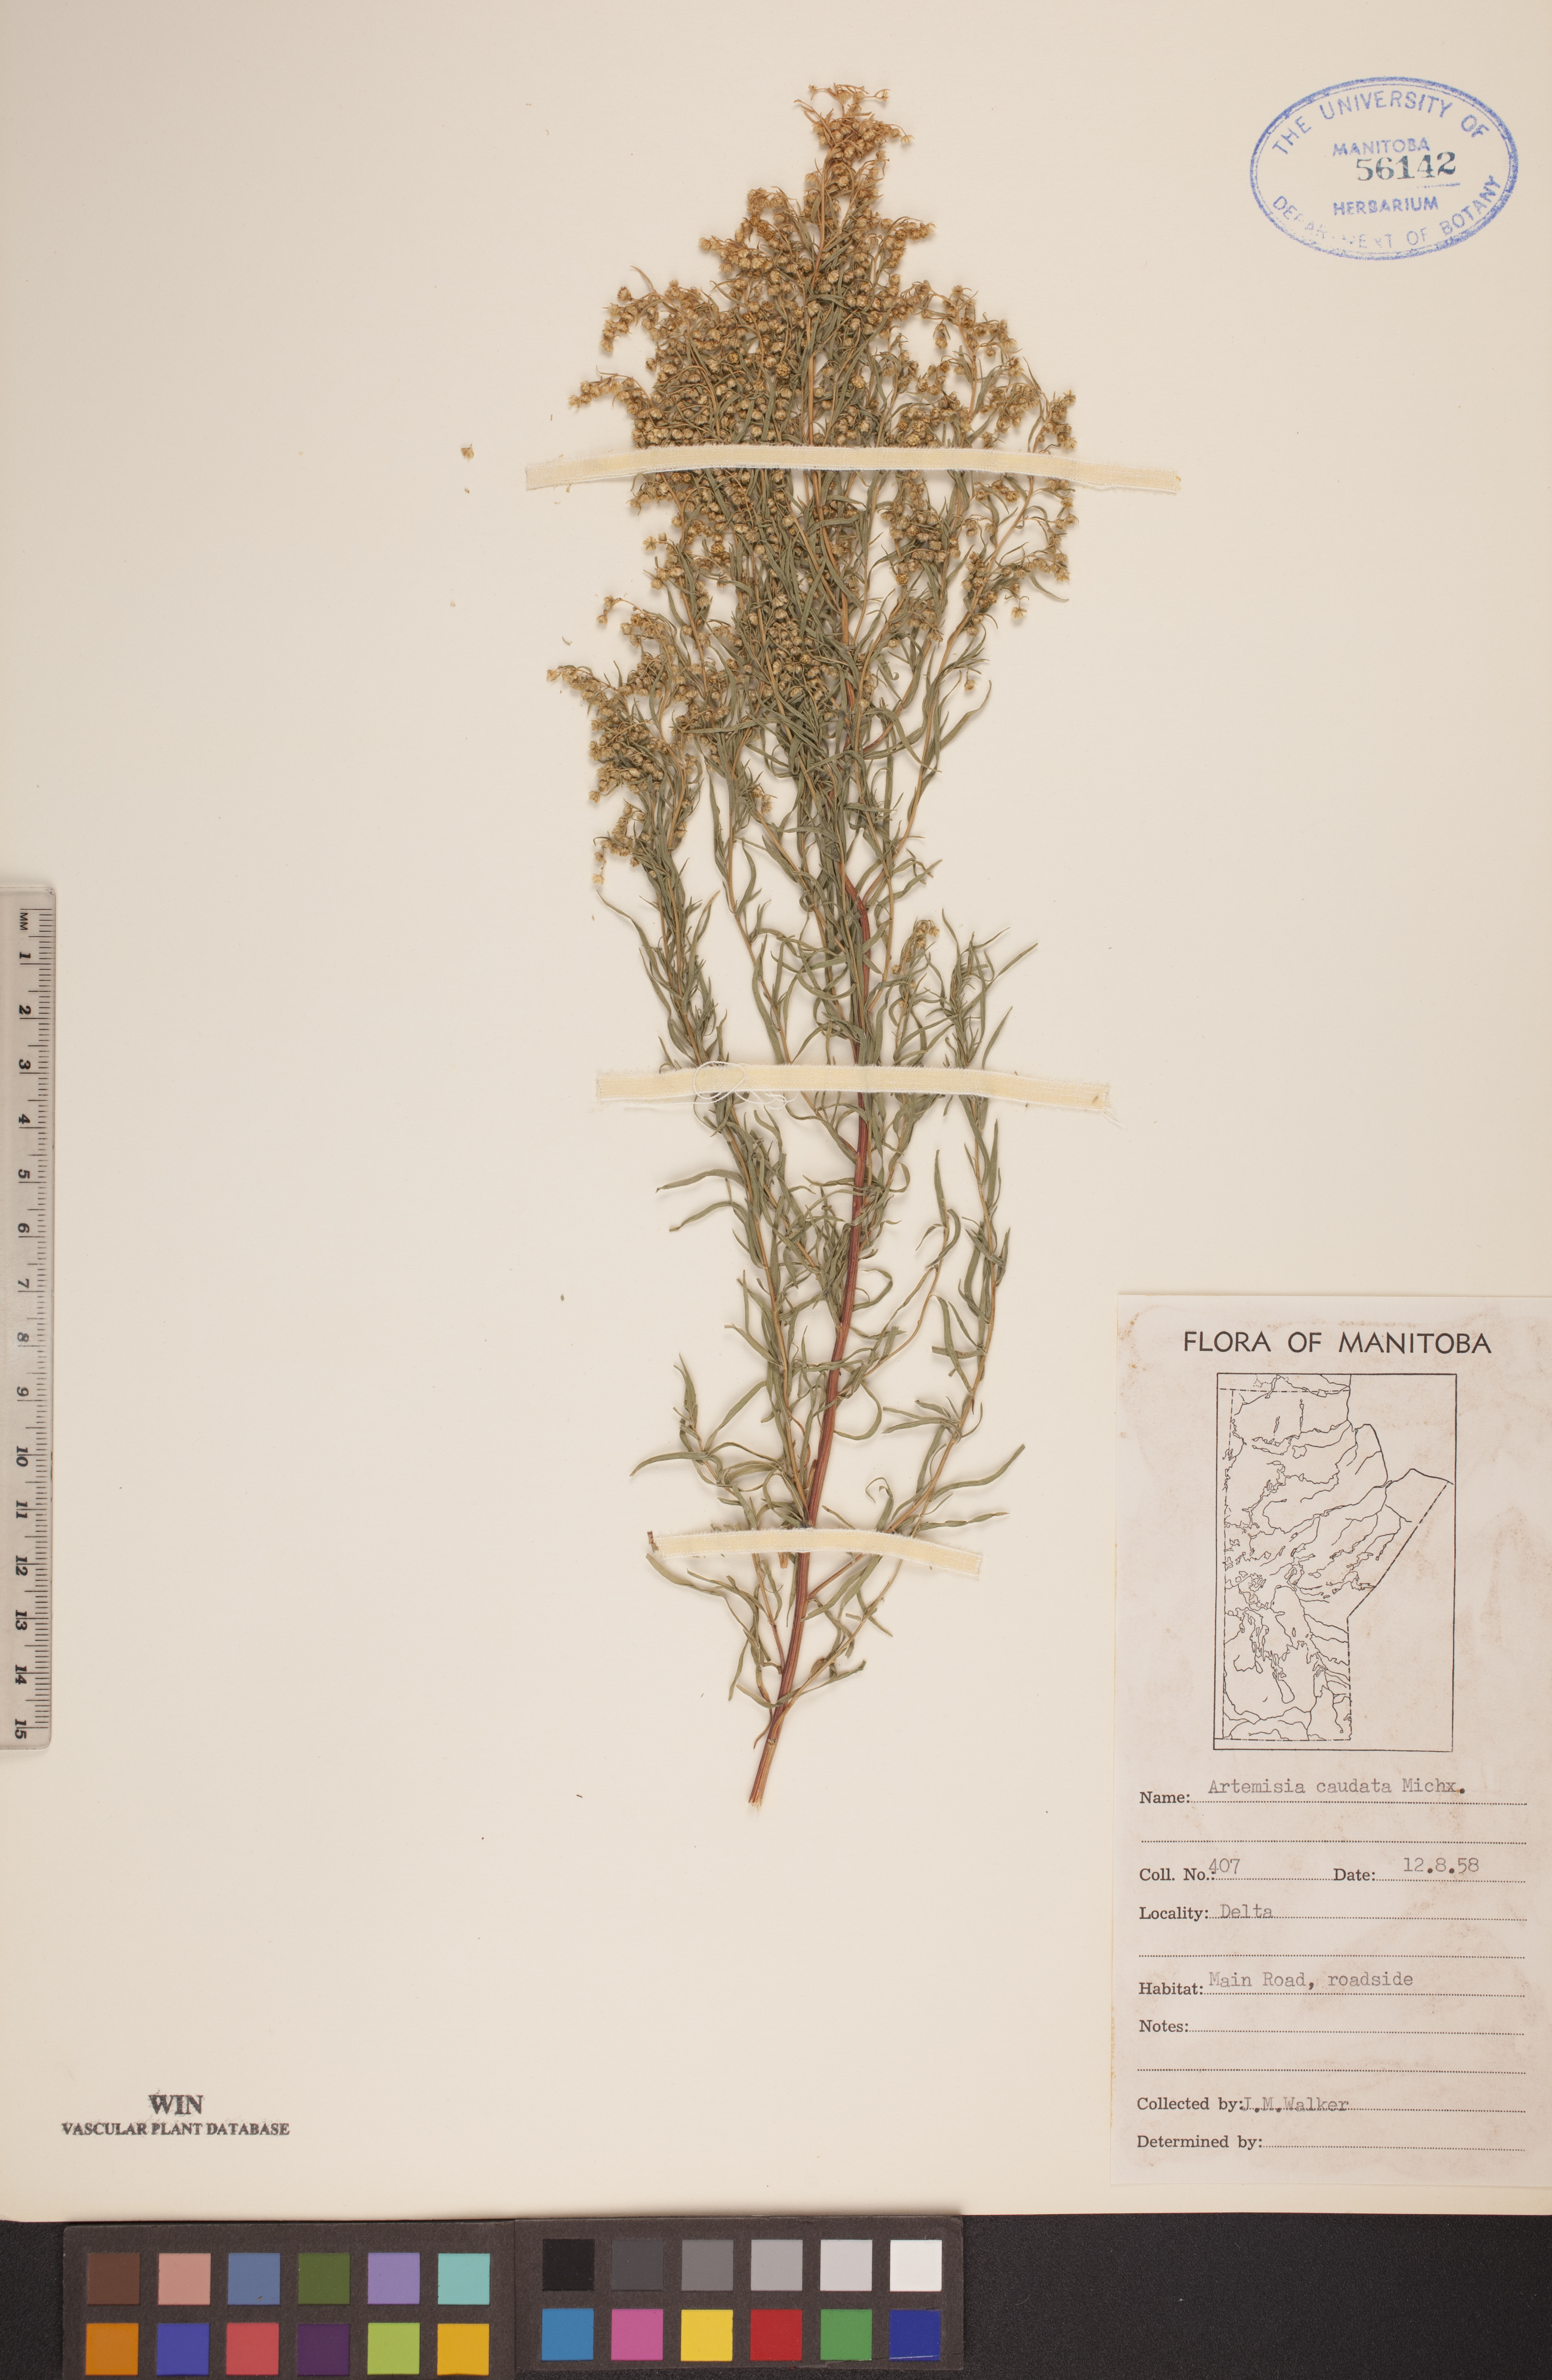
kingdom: Plantae
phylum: Tracheophyta
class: Magnoliopsida
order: Asterales
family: Asteraceae
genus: Artemisia
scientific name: Artemisia campestris
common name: Field wormwood
